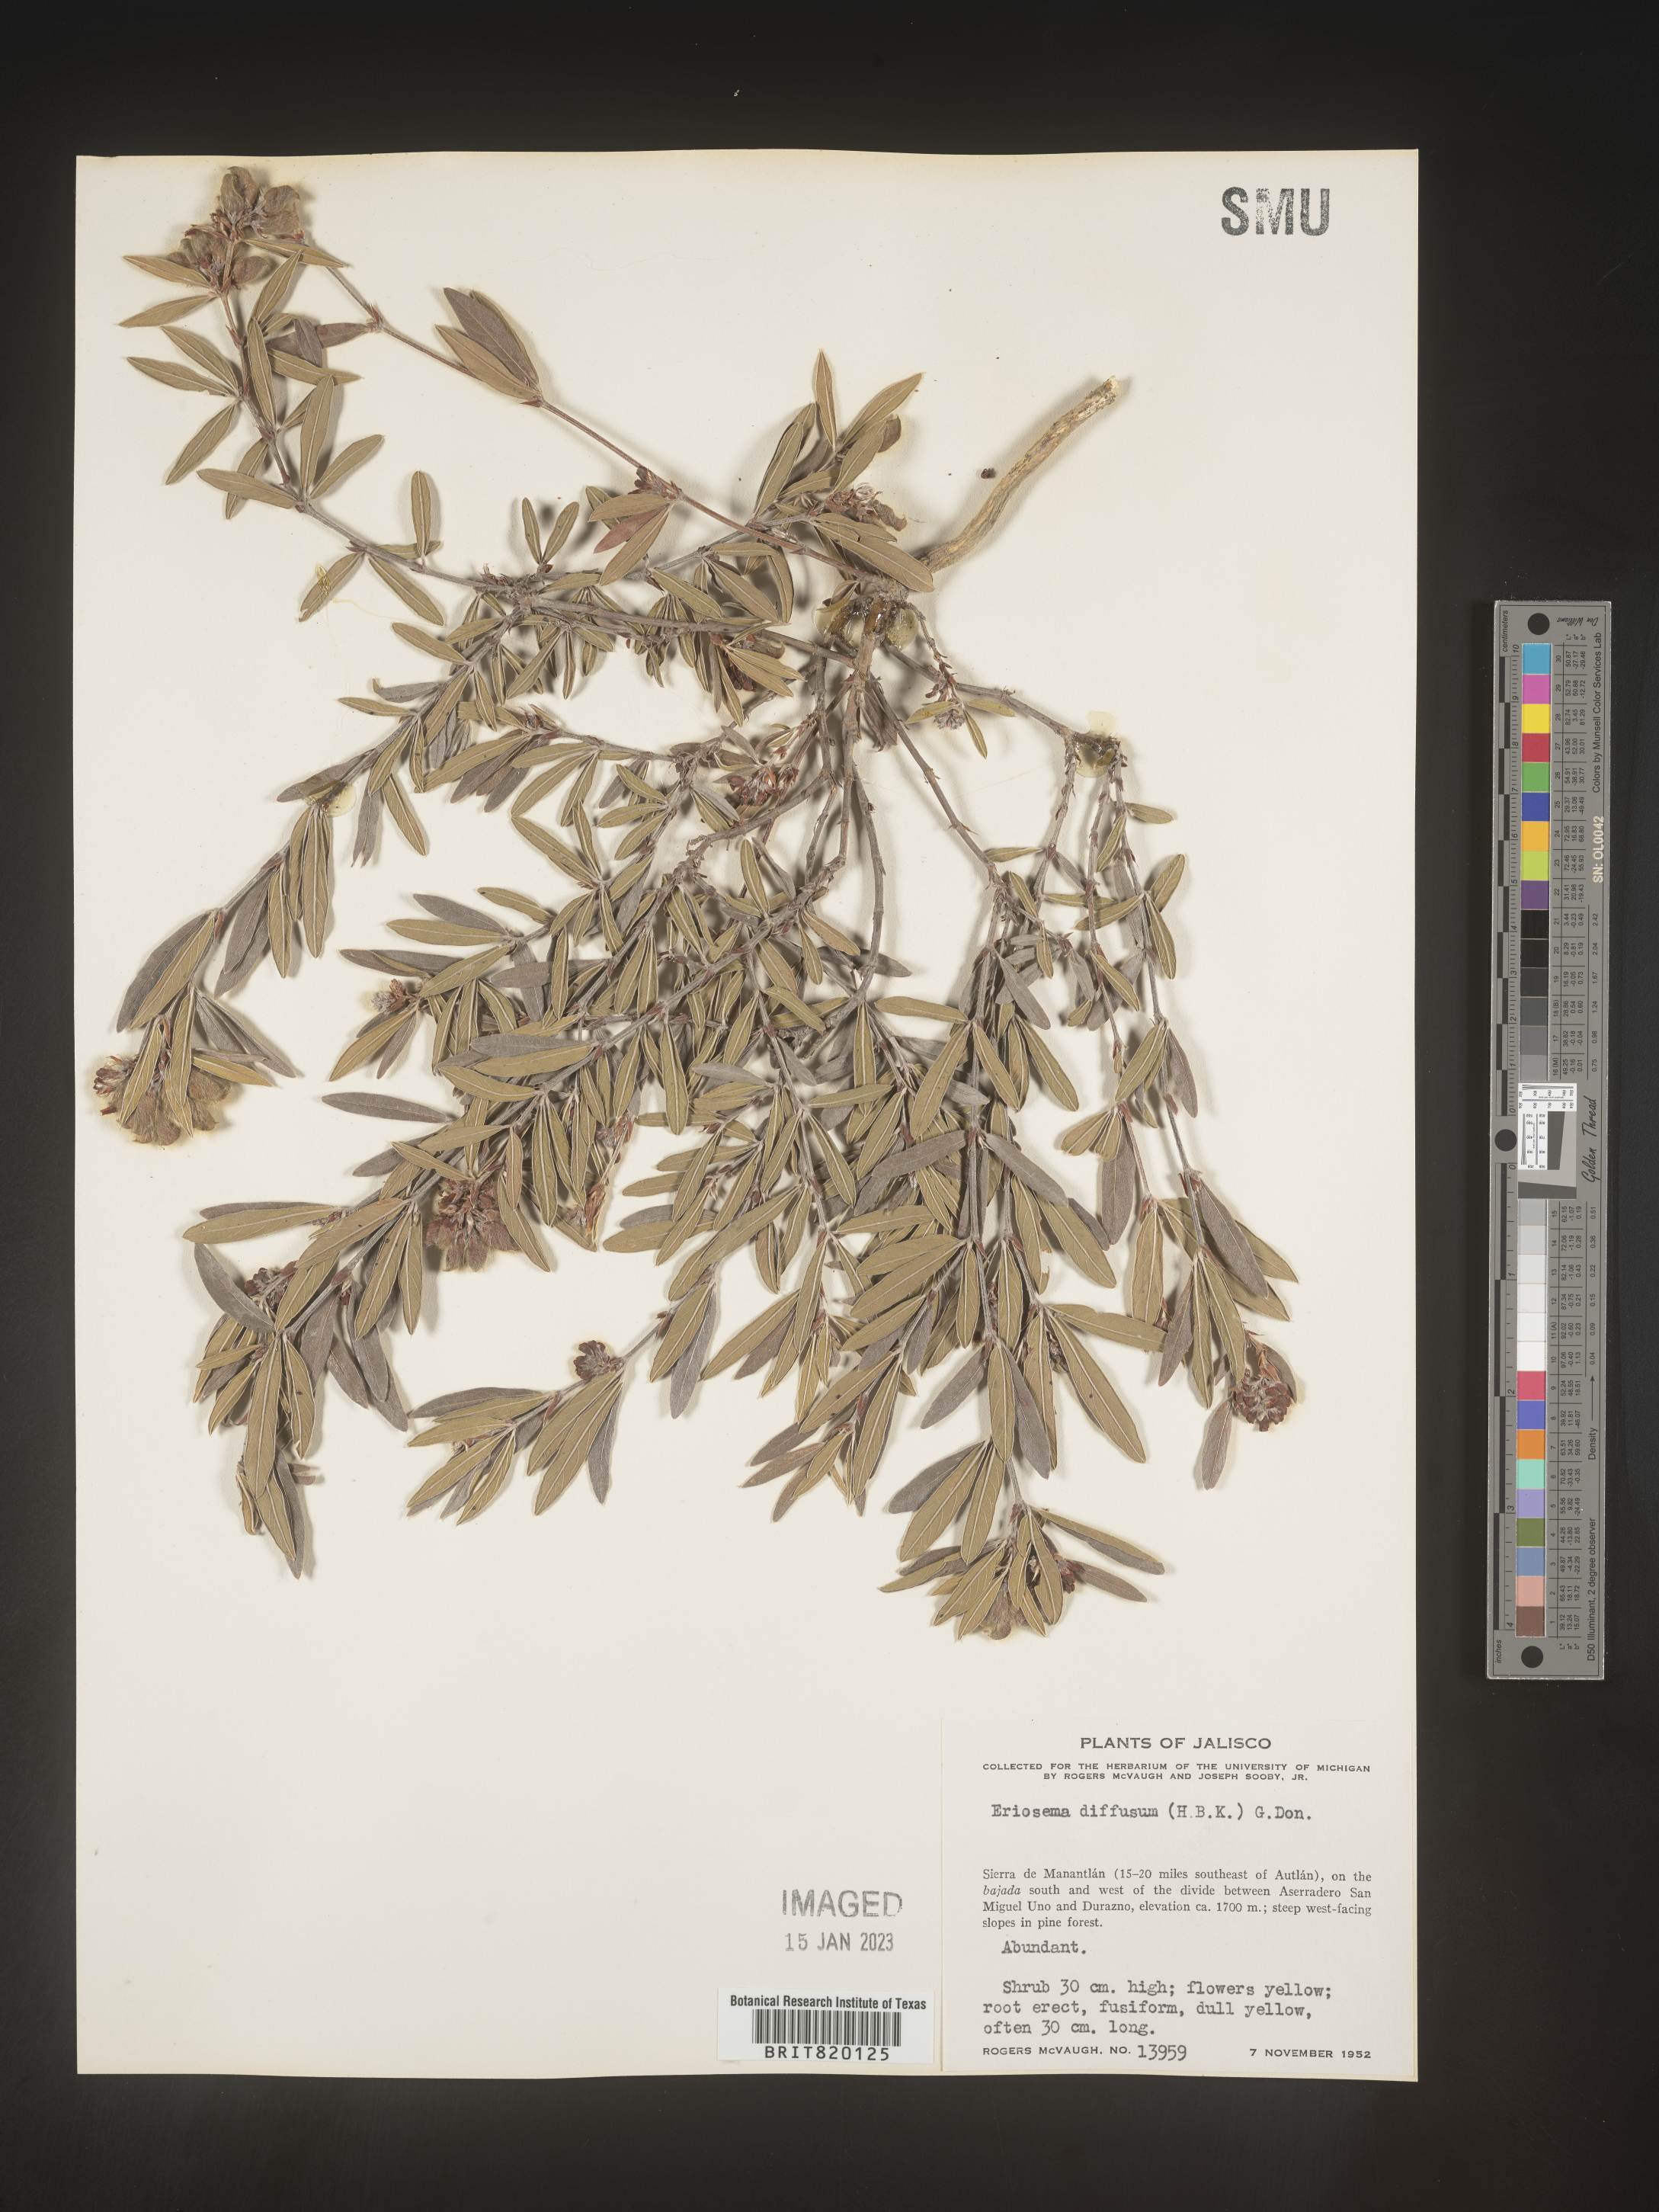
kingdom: Plantae
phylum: Tracheophyta
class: Magnoliopsida
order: Fabales
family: Fabaceae
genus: Eriosema
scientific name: Eriosema
